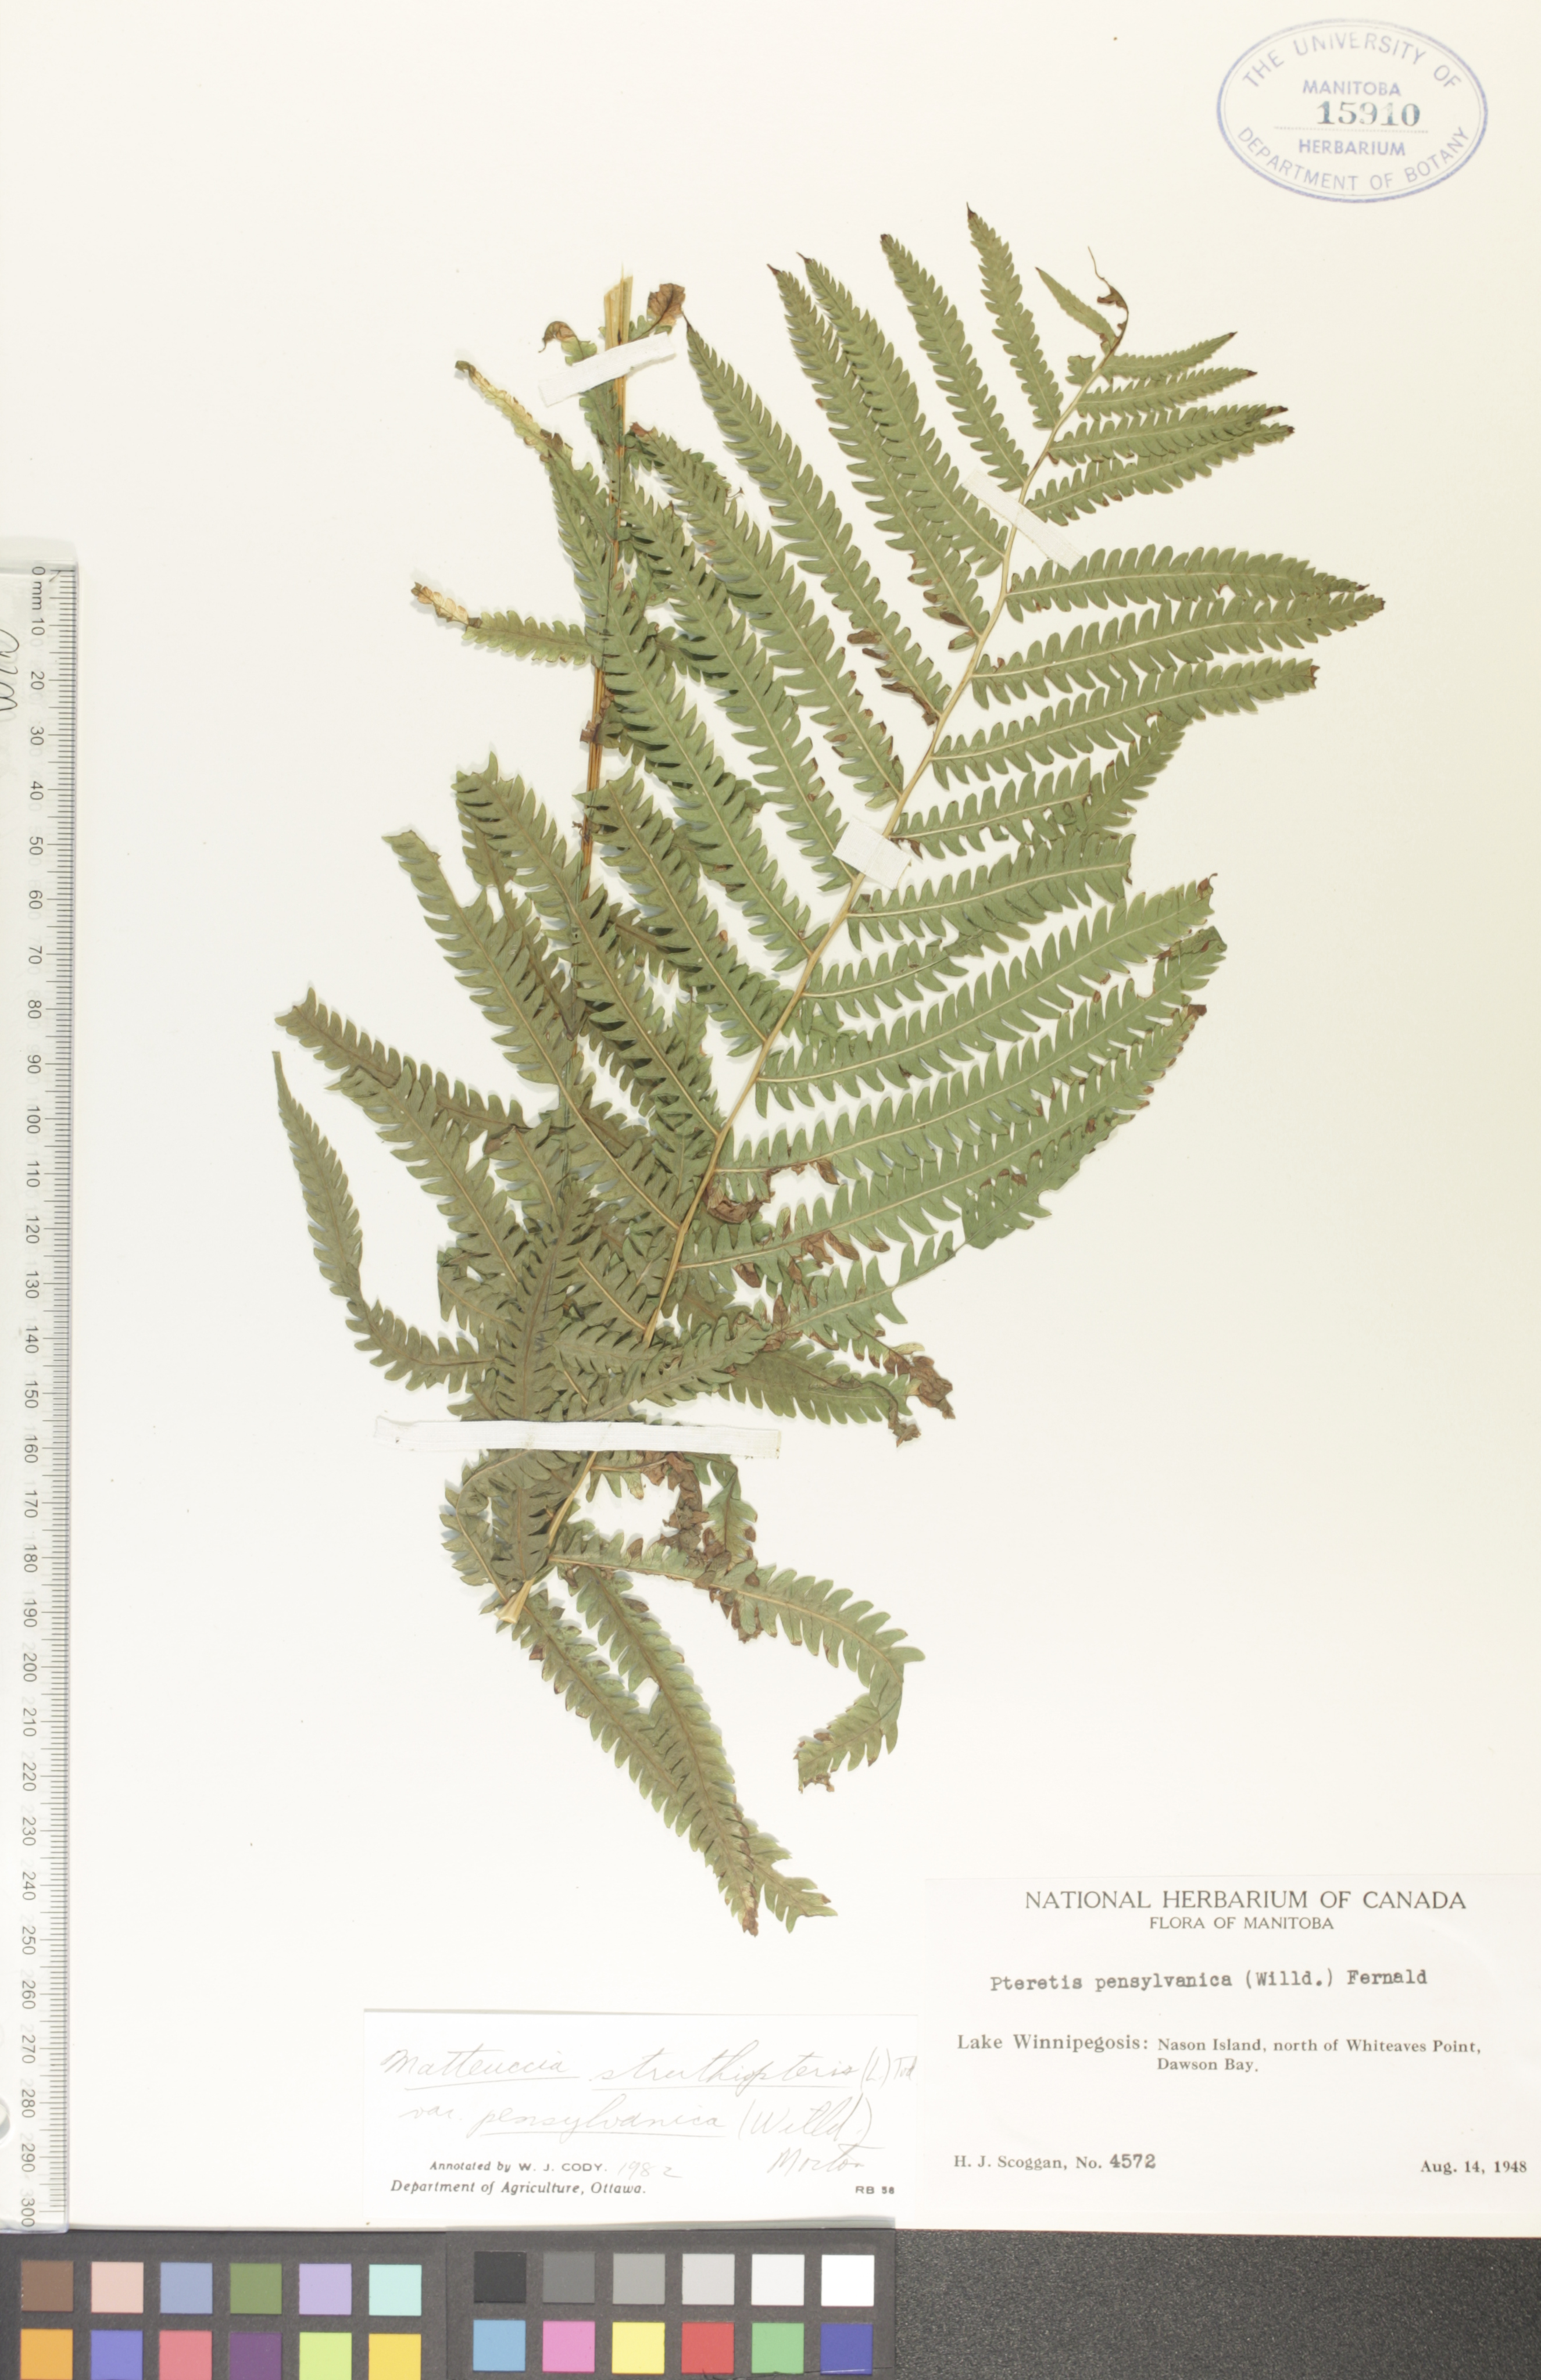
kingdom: Plantae
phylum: Tracheophyta
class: Polypodiopsida
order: Polypodiales
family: Onocleaceae
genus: Matteuccia
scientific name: Matteuccia pensylvanica
